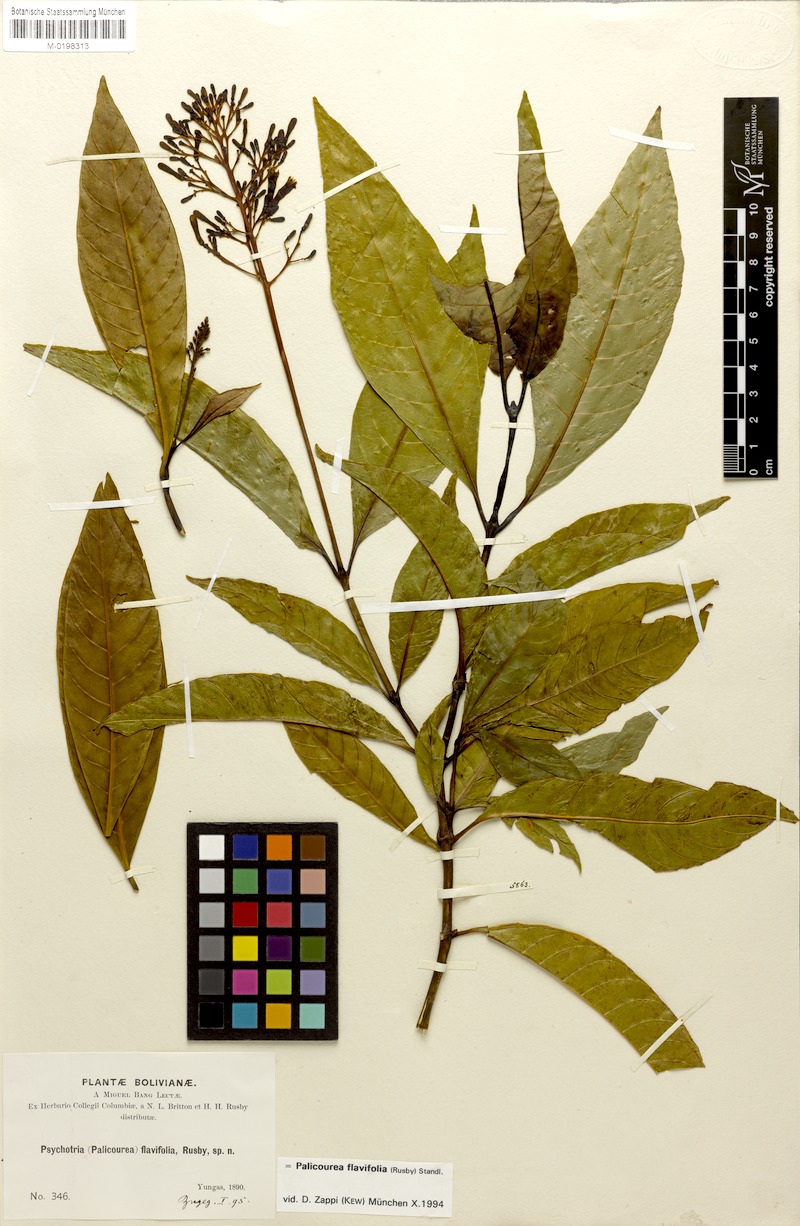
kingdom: Plantae
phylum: Tracheophyta
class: Magnoliopsida
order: Gentianales
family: Rubiaceae
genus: Palicourea
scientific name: Palicourea flavifolia
